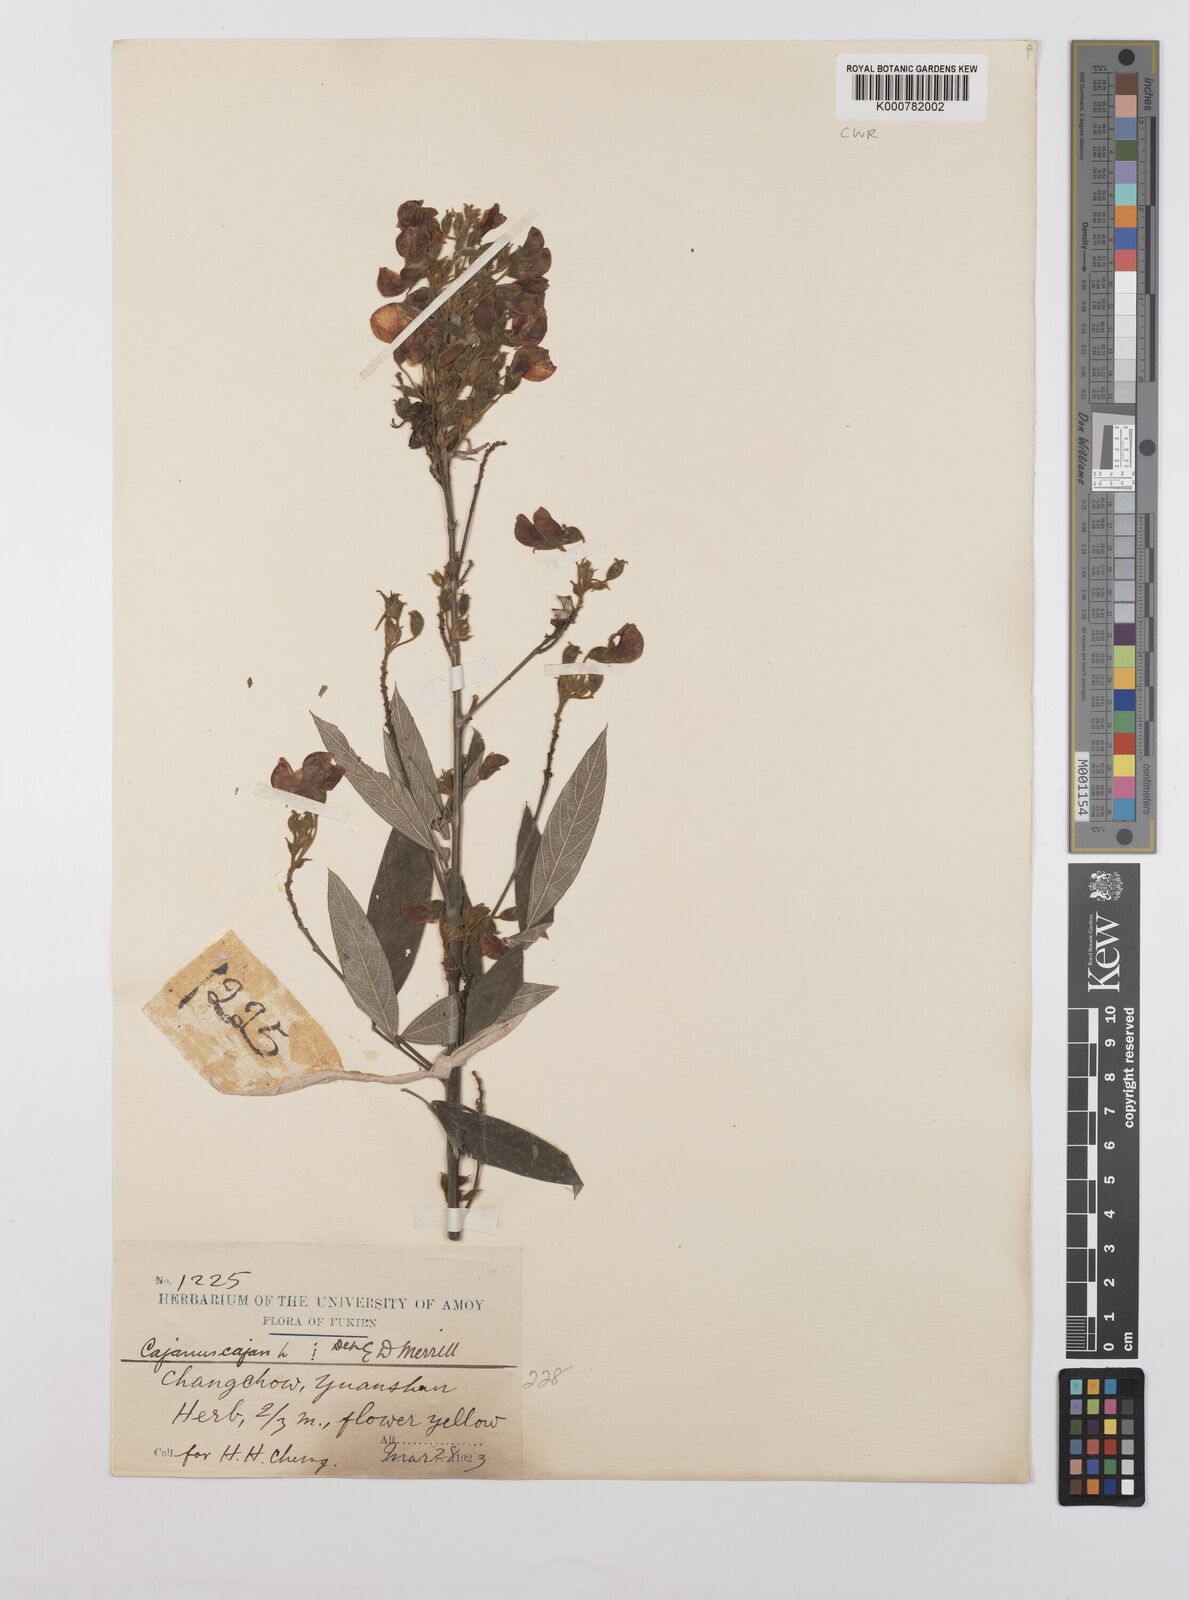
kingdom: Plantae
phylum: Tracheophyta
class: Magnoliopsida
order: Fabales
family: Fabaceae
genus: Cajanus
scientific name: Cajanus
